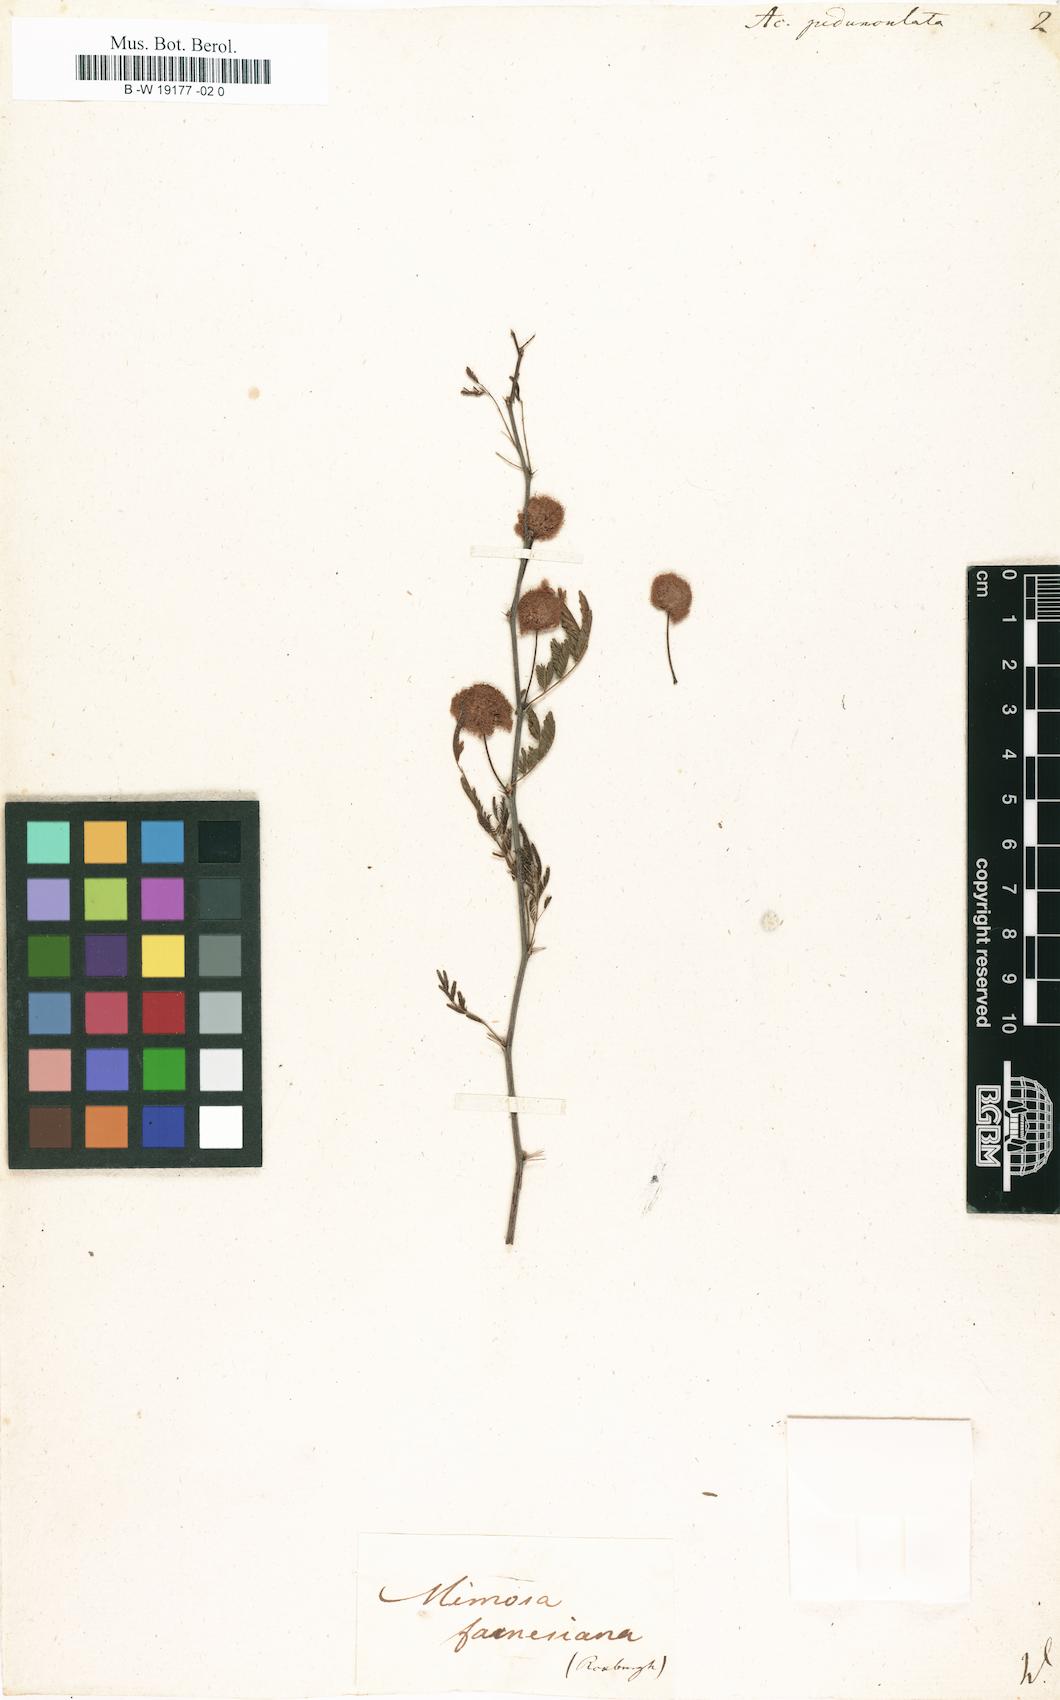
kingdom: Plantae
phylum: Tracheophyta
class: Magnoliopsida
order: Fabales
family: Fabaceae
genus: Vachellia
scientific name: Vachellia farnesiana
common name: Sweet acacia
